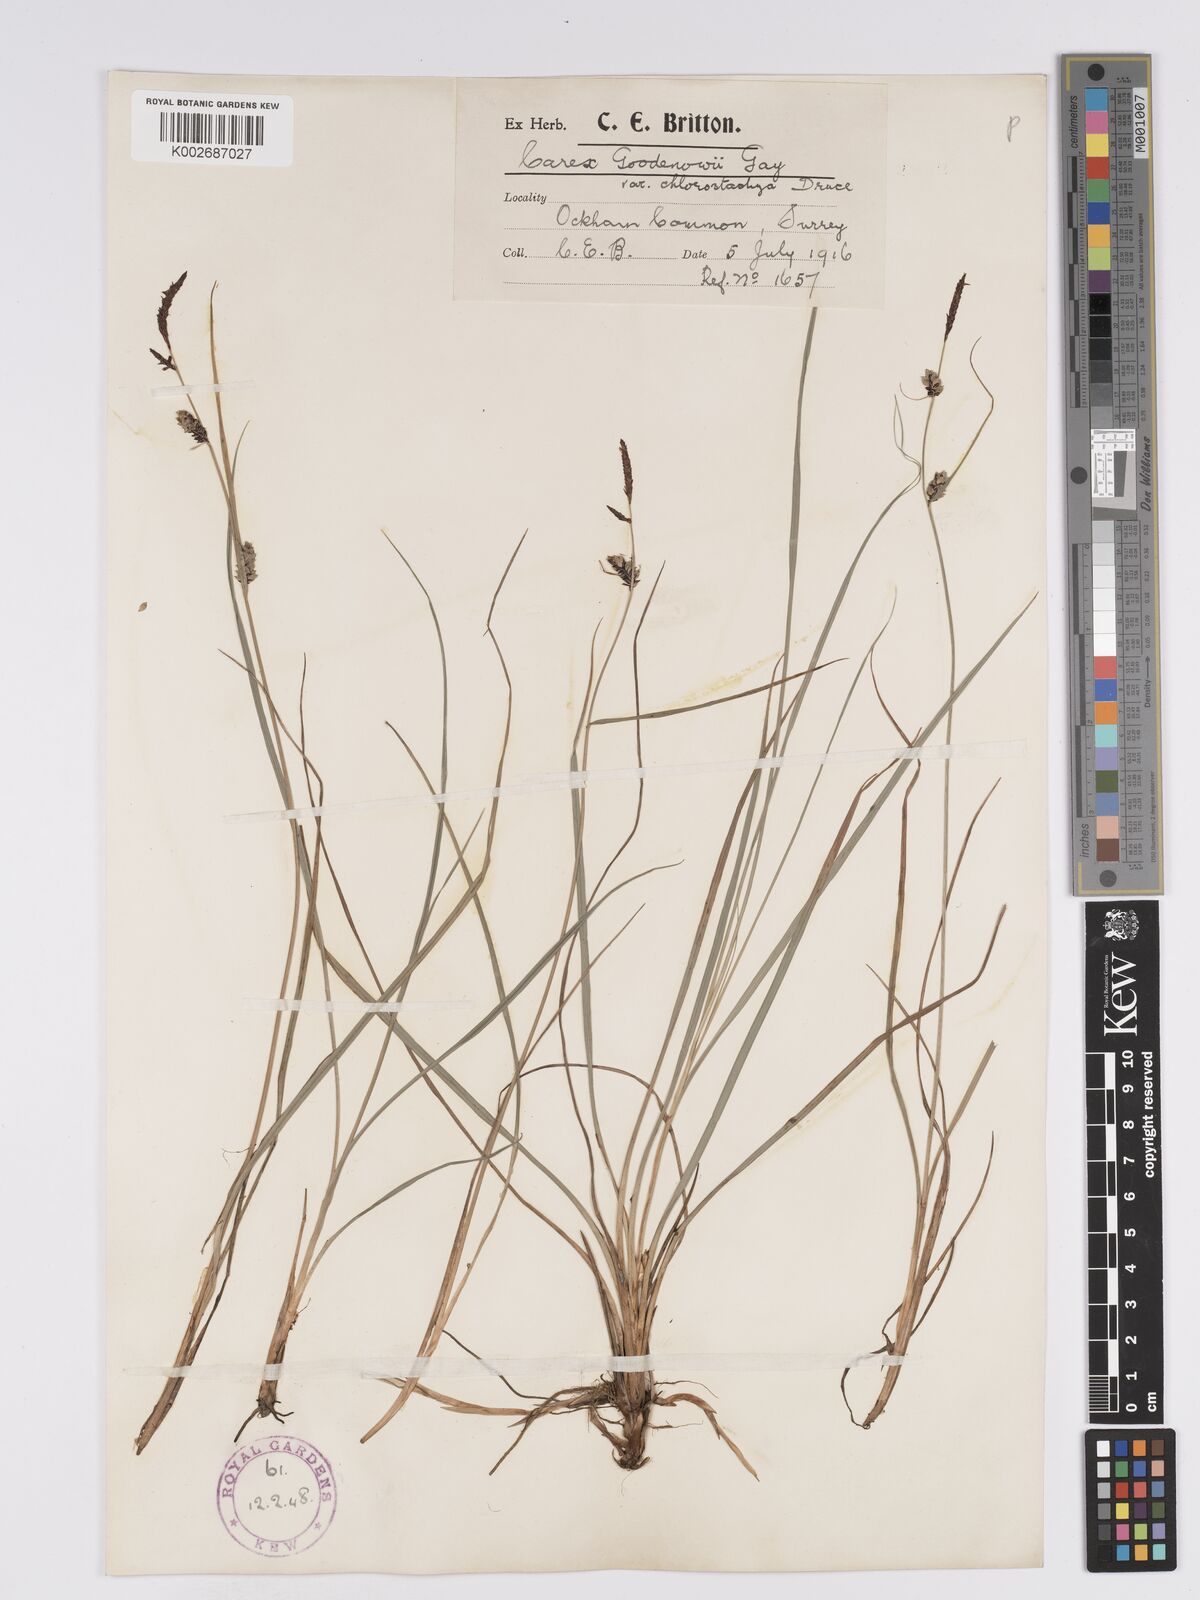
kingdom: Plantae
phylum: Tracheophyta
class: Liliopsida
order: Poales
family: Cyperaceae
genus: Carex
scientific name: Carex nigra
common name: Common sedge
